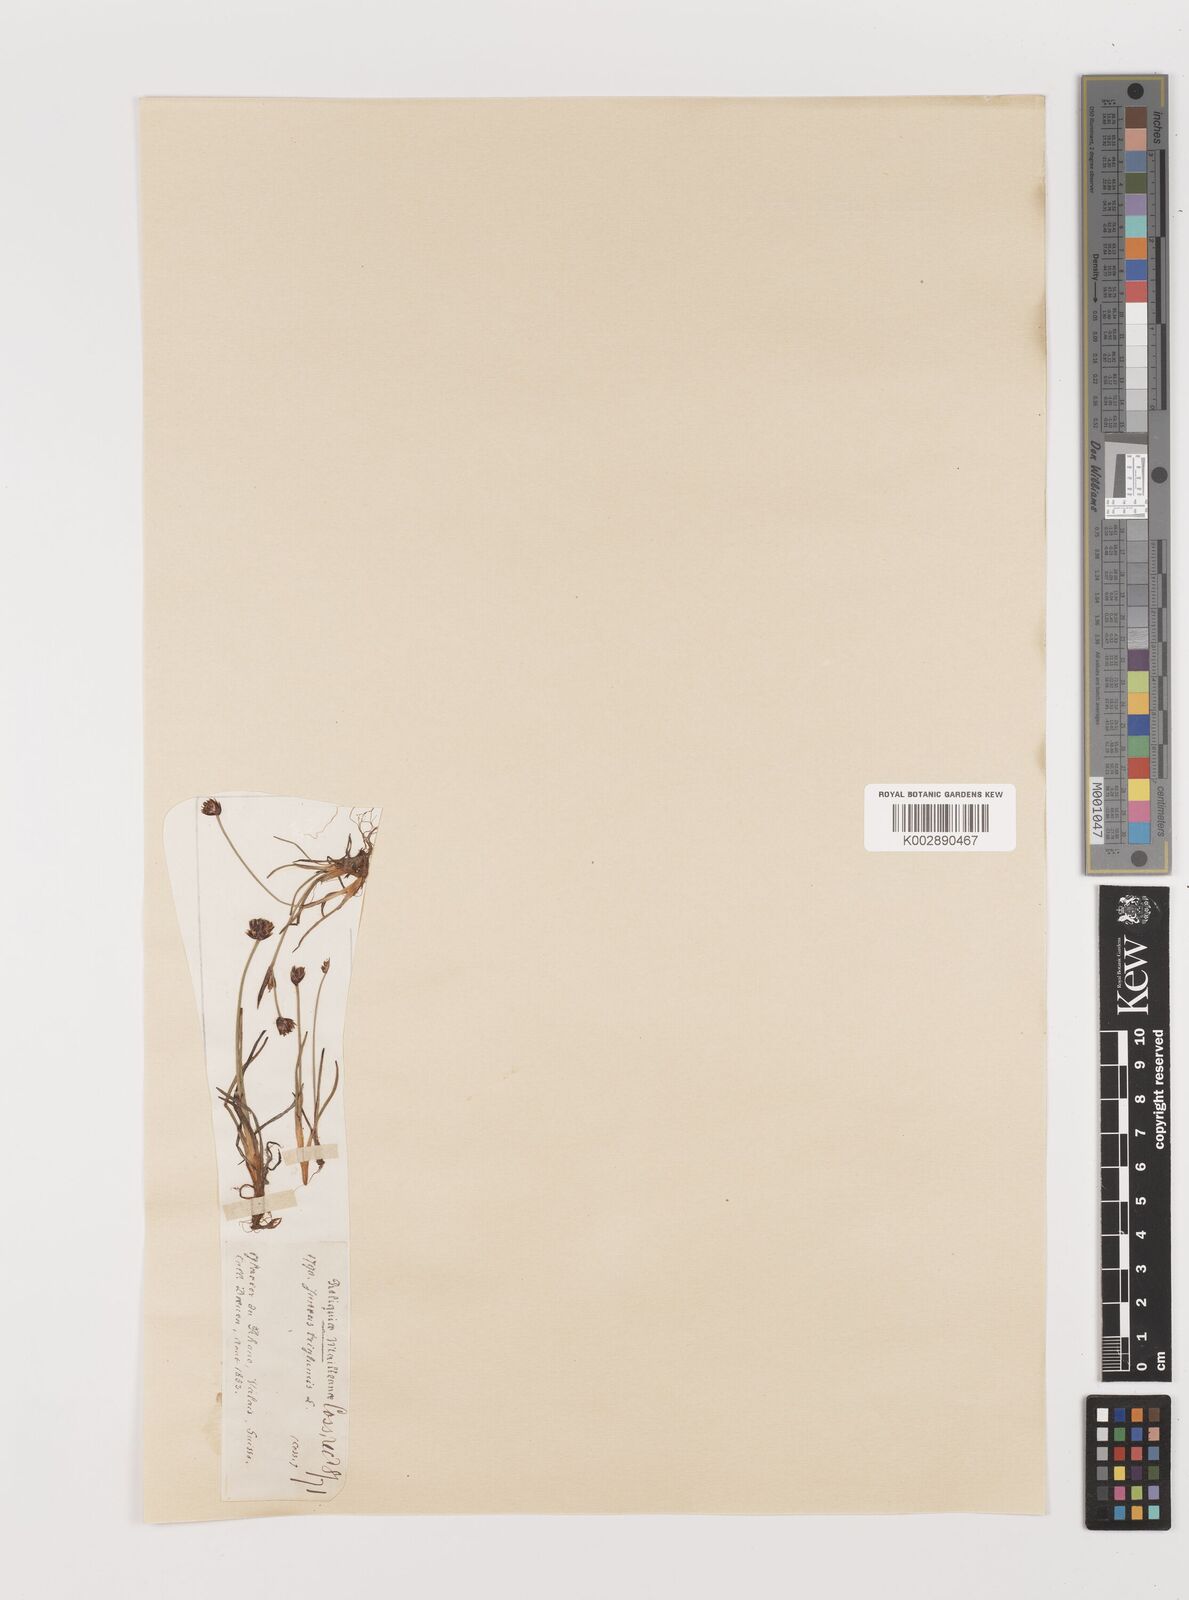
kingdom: Plantae
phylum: Tracheophyta
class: Liliopsida
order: Poales
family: Juncaceae
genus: Juncus
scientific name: Juncus triglumis
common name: Three-flowered rush
